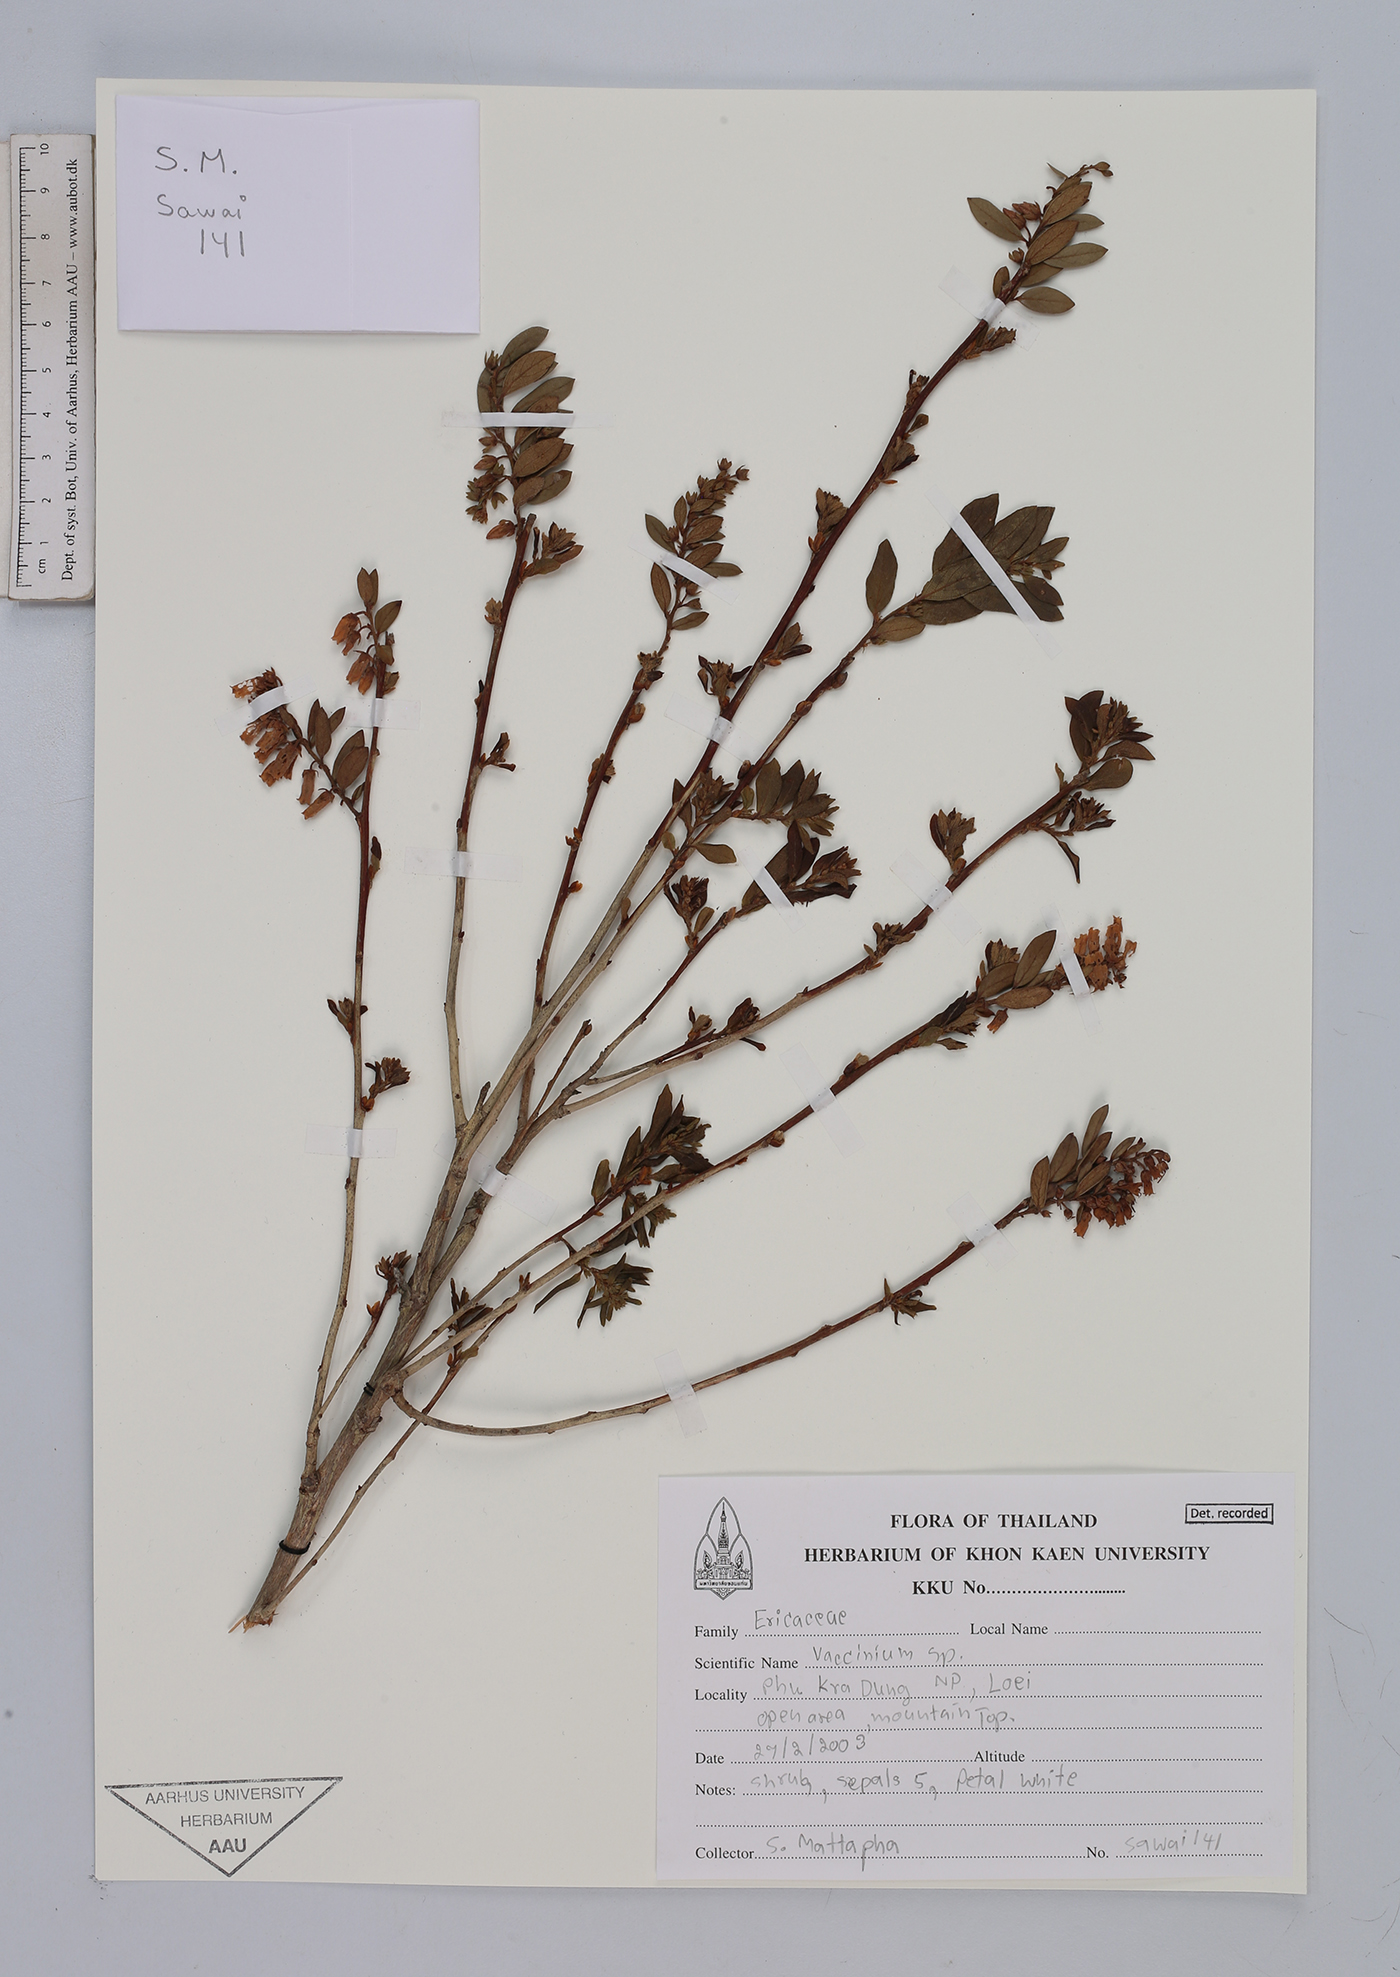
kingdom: Plantae
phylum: Tracheophyta
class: Magnoliopsida
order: Ericales
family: Ericaceae
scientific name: Ericaceae
